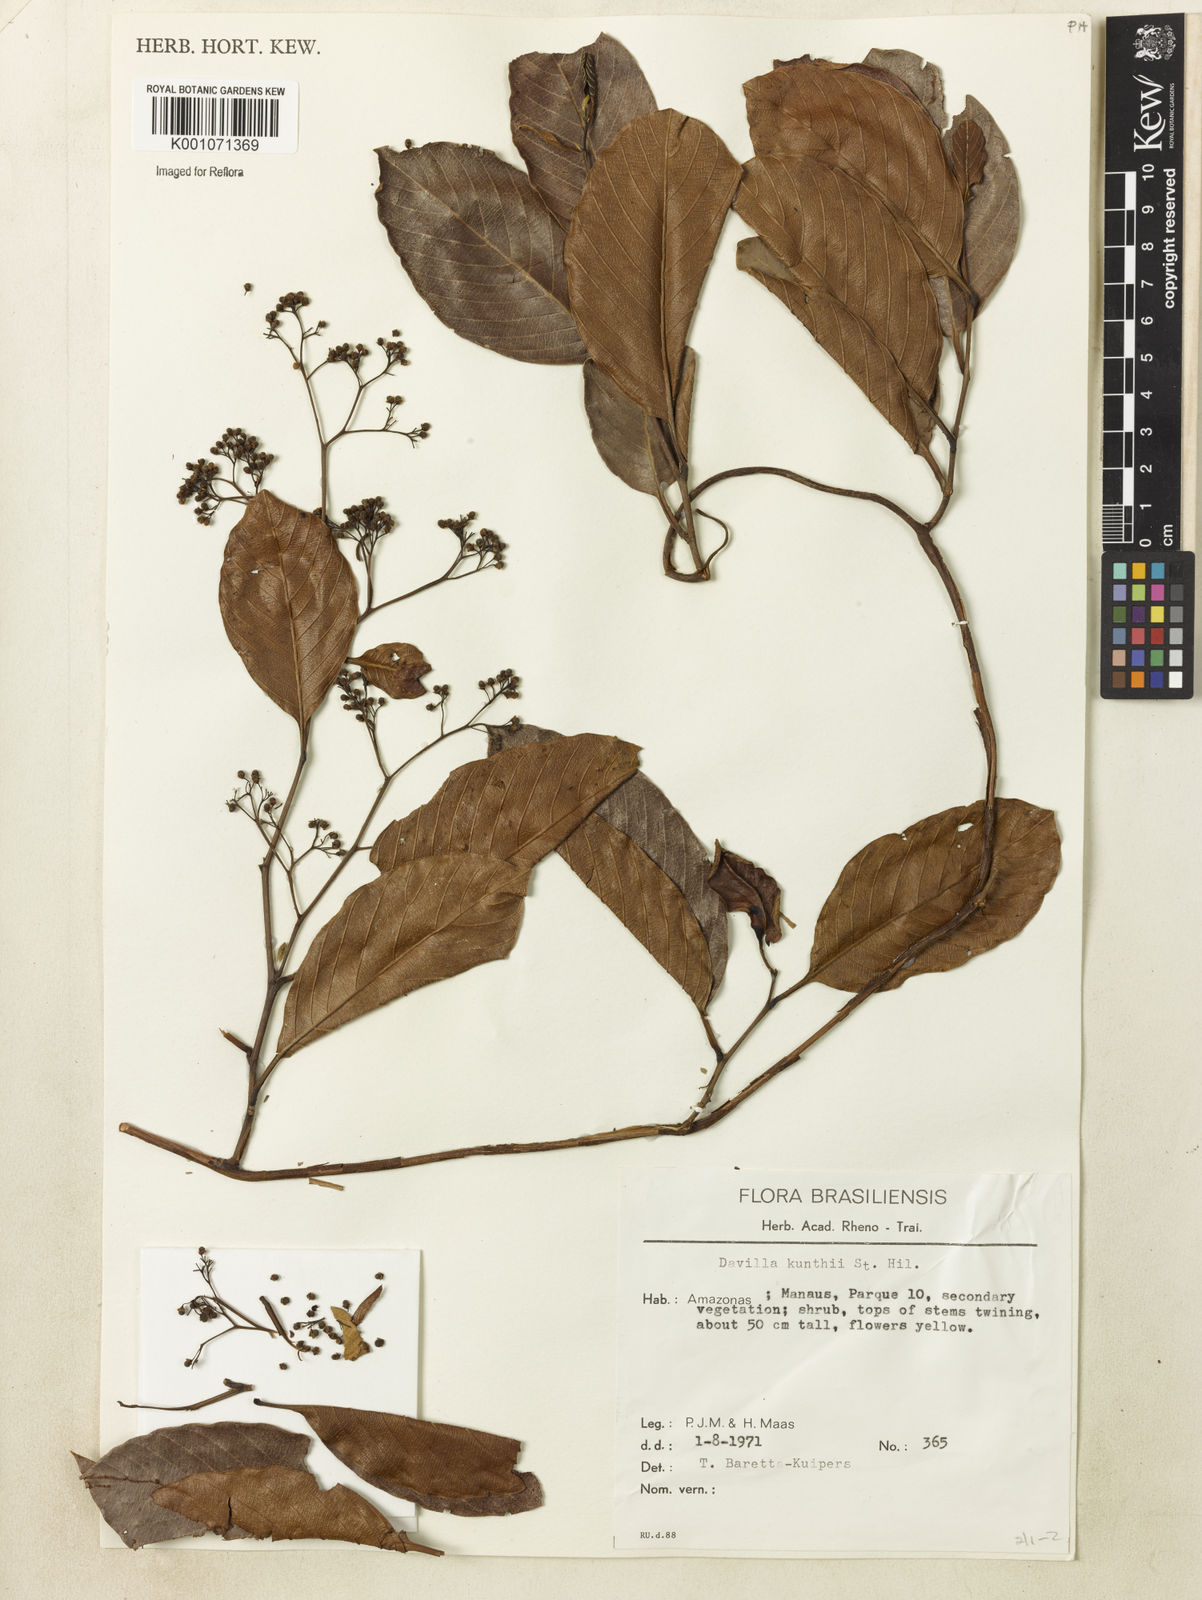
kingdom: Plantae
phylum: Tracheophyta
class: Magnoliopsida
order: Dilleniales
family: Dilleniaceae
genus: Davilla
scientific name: Davilla kunthii
